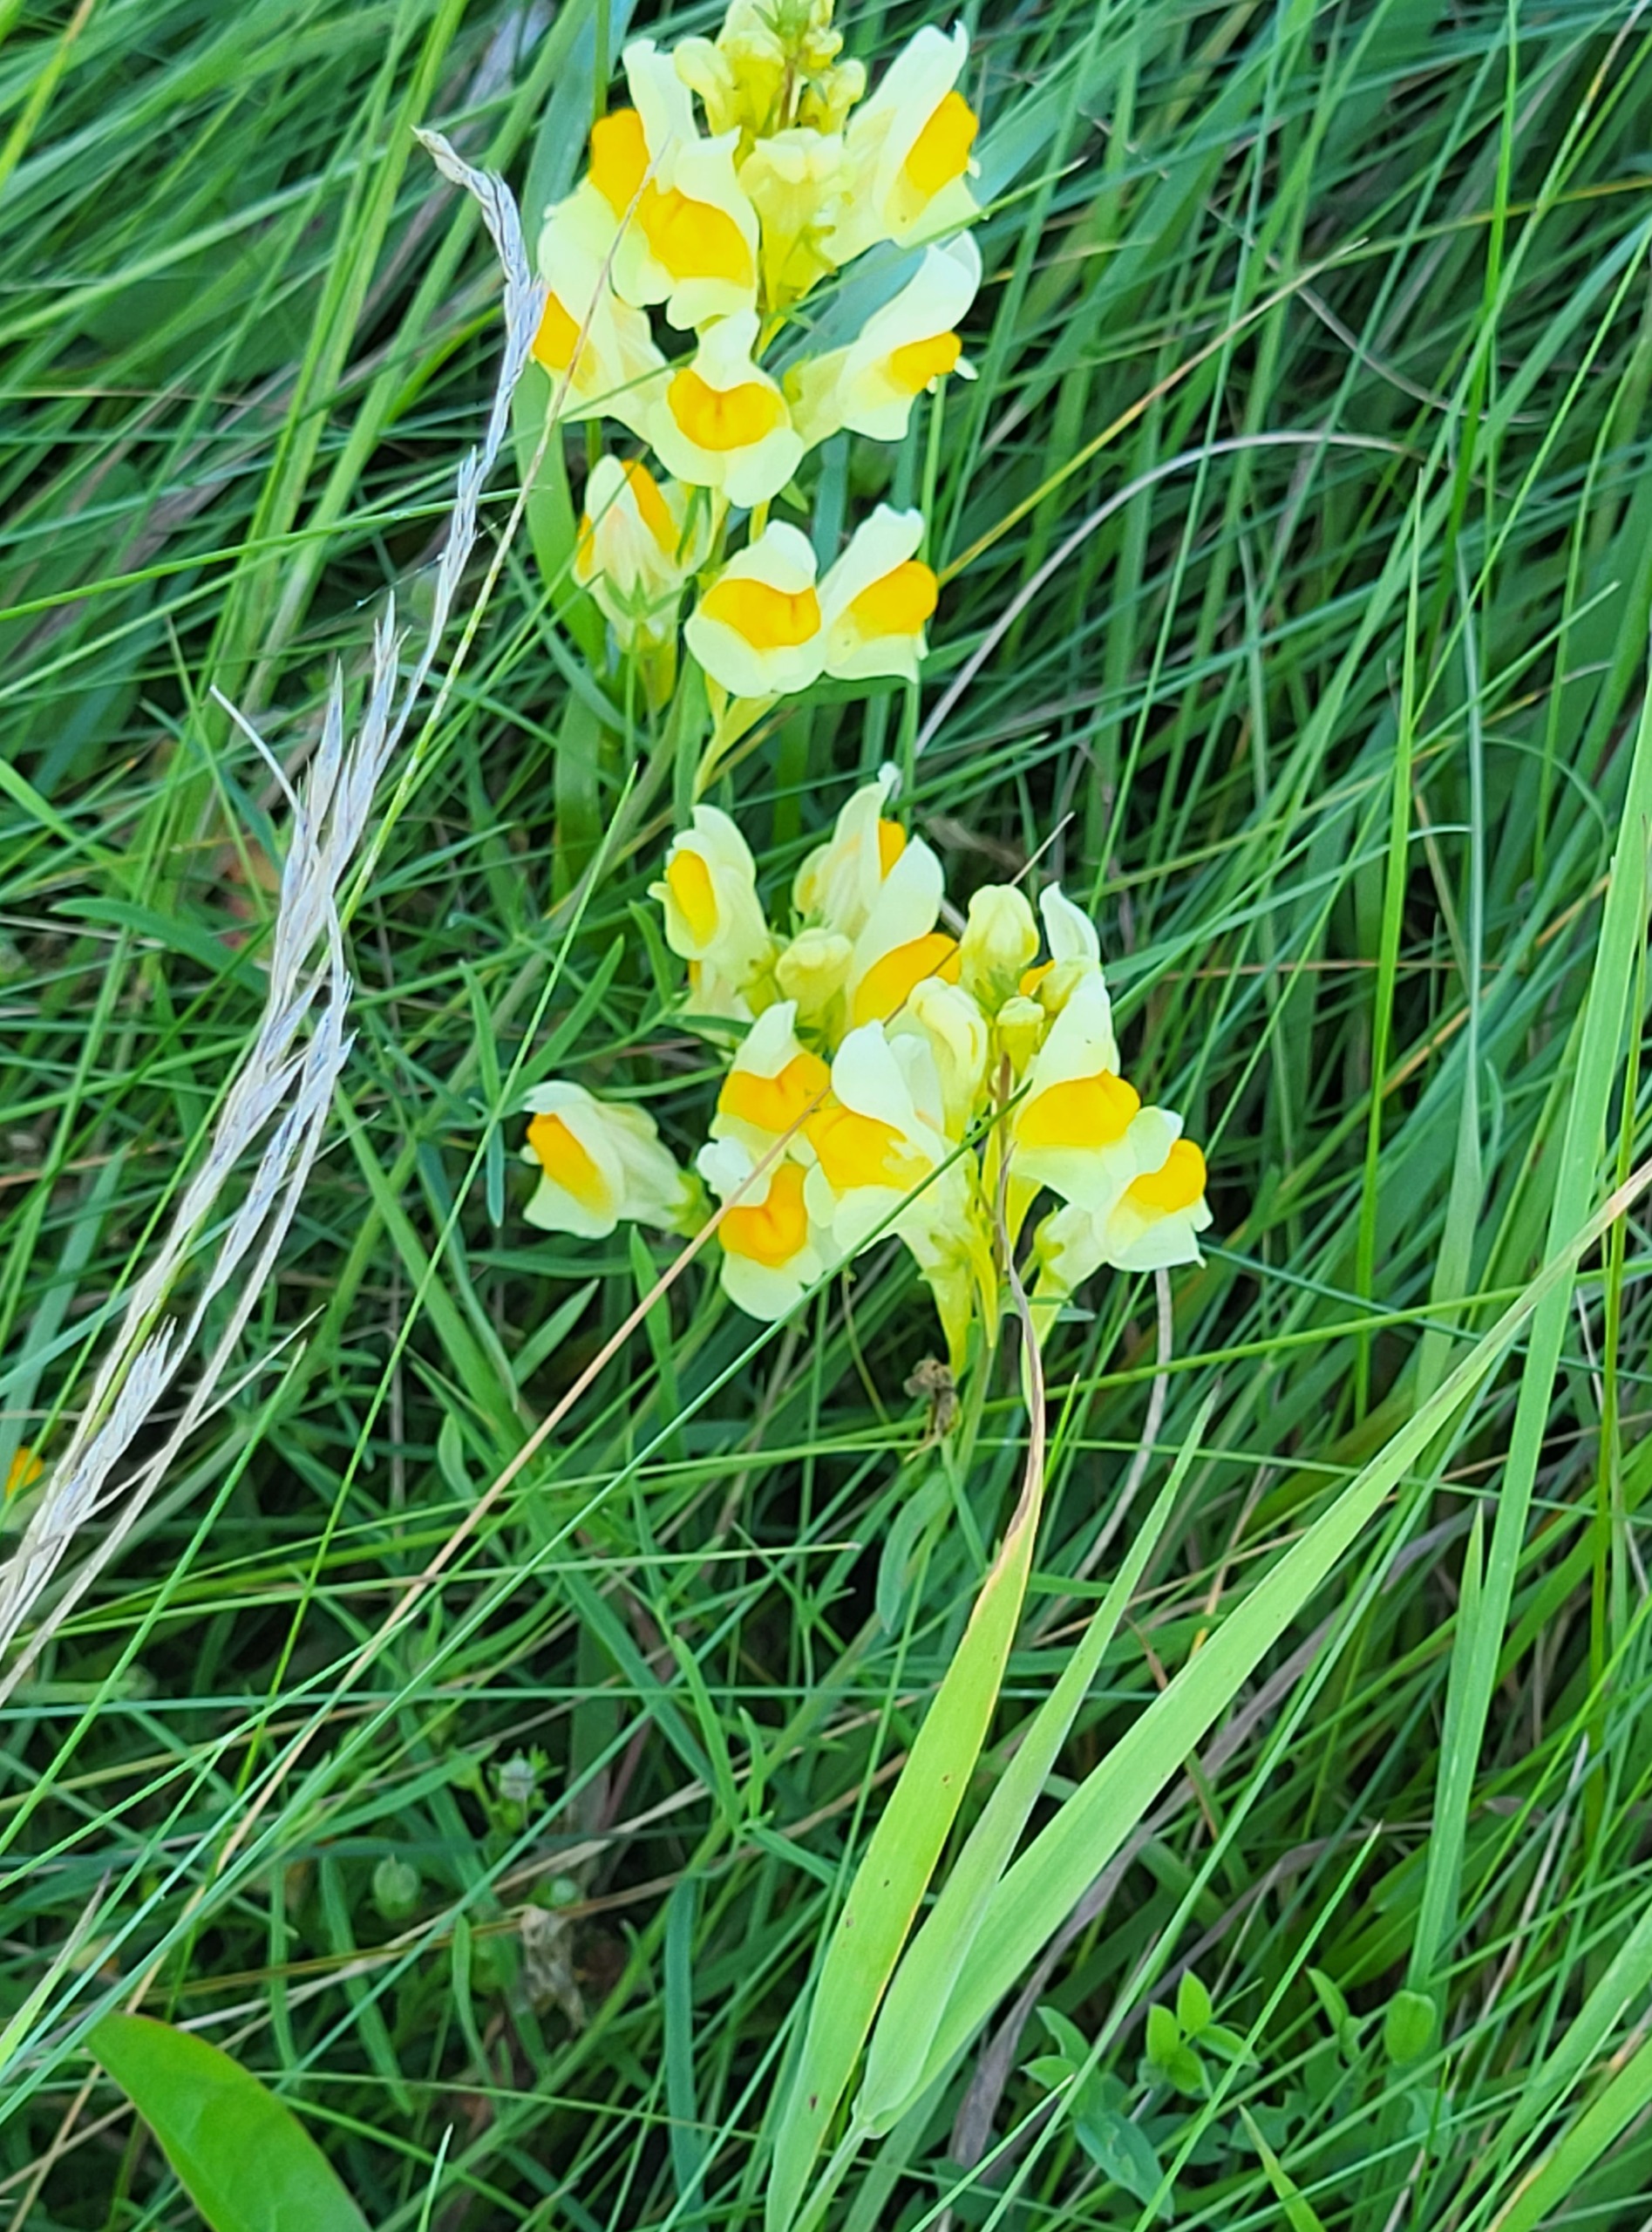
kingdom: Plantae
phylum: Tracheophyta
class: Magnoliopsida
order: Lamiales
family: Plantaginaceae
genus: Linaria
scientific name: Linaria vulgaris
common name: Almindelig torskemund
